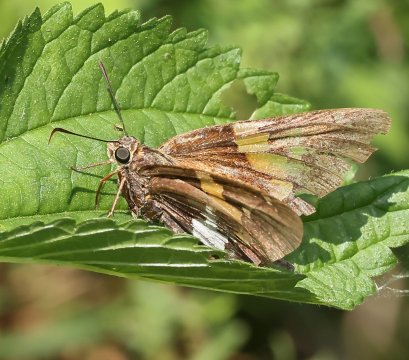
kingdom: Animalia
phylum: Arthropoda
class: Insecta
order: Lepidoptera
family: Hesperiidae
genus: Epargyreus
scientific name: Epargyreus clarus
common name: Silver-spotted Skipper
